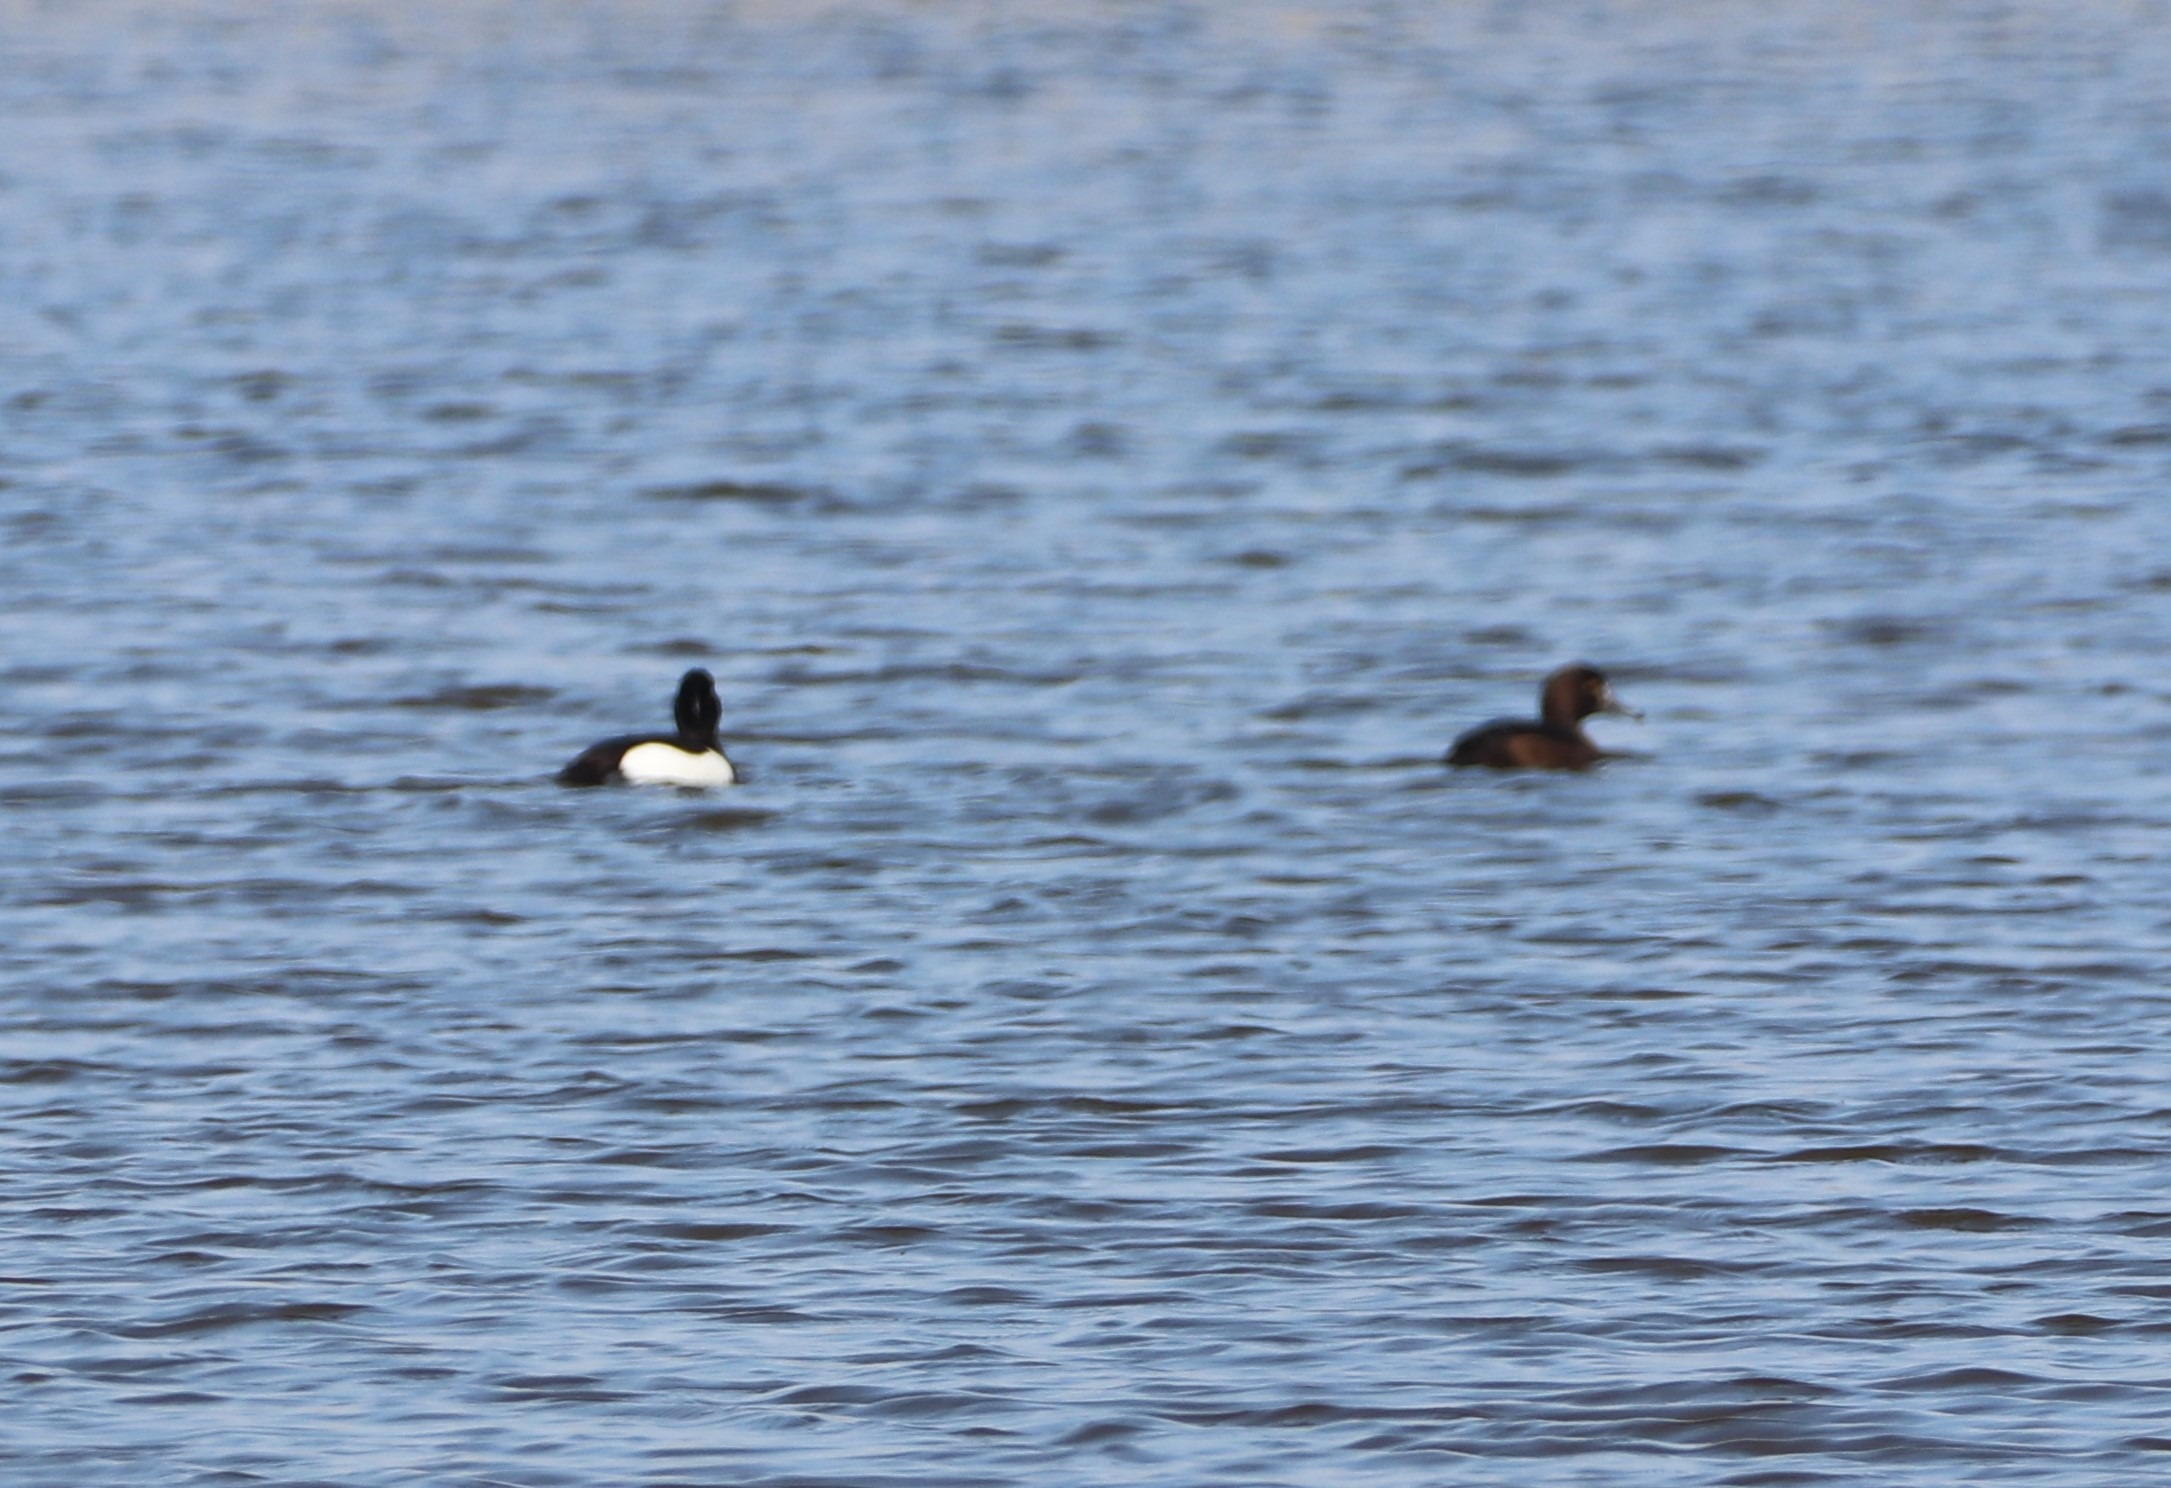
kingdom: Animalia
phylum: Chordata
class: Aves
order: Anseriformes
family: Anatidae
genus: Aythya
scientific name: Aythya fuligula
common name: Troldand
